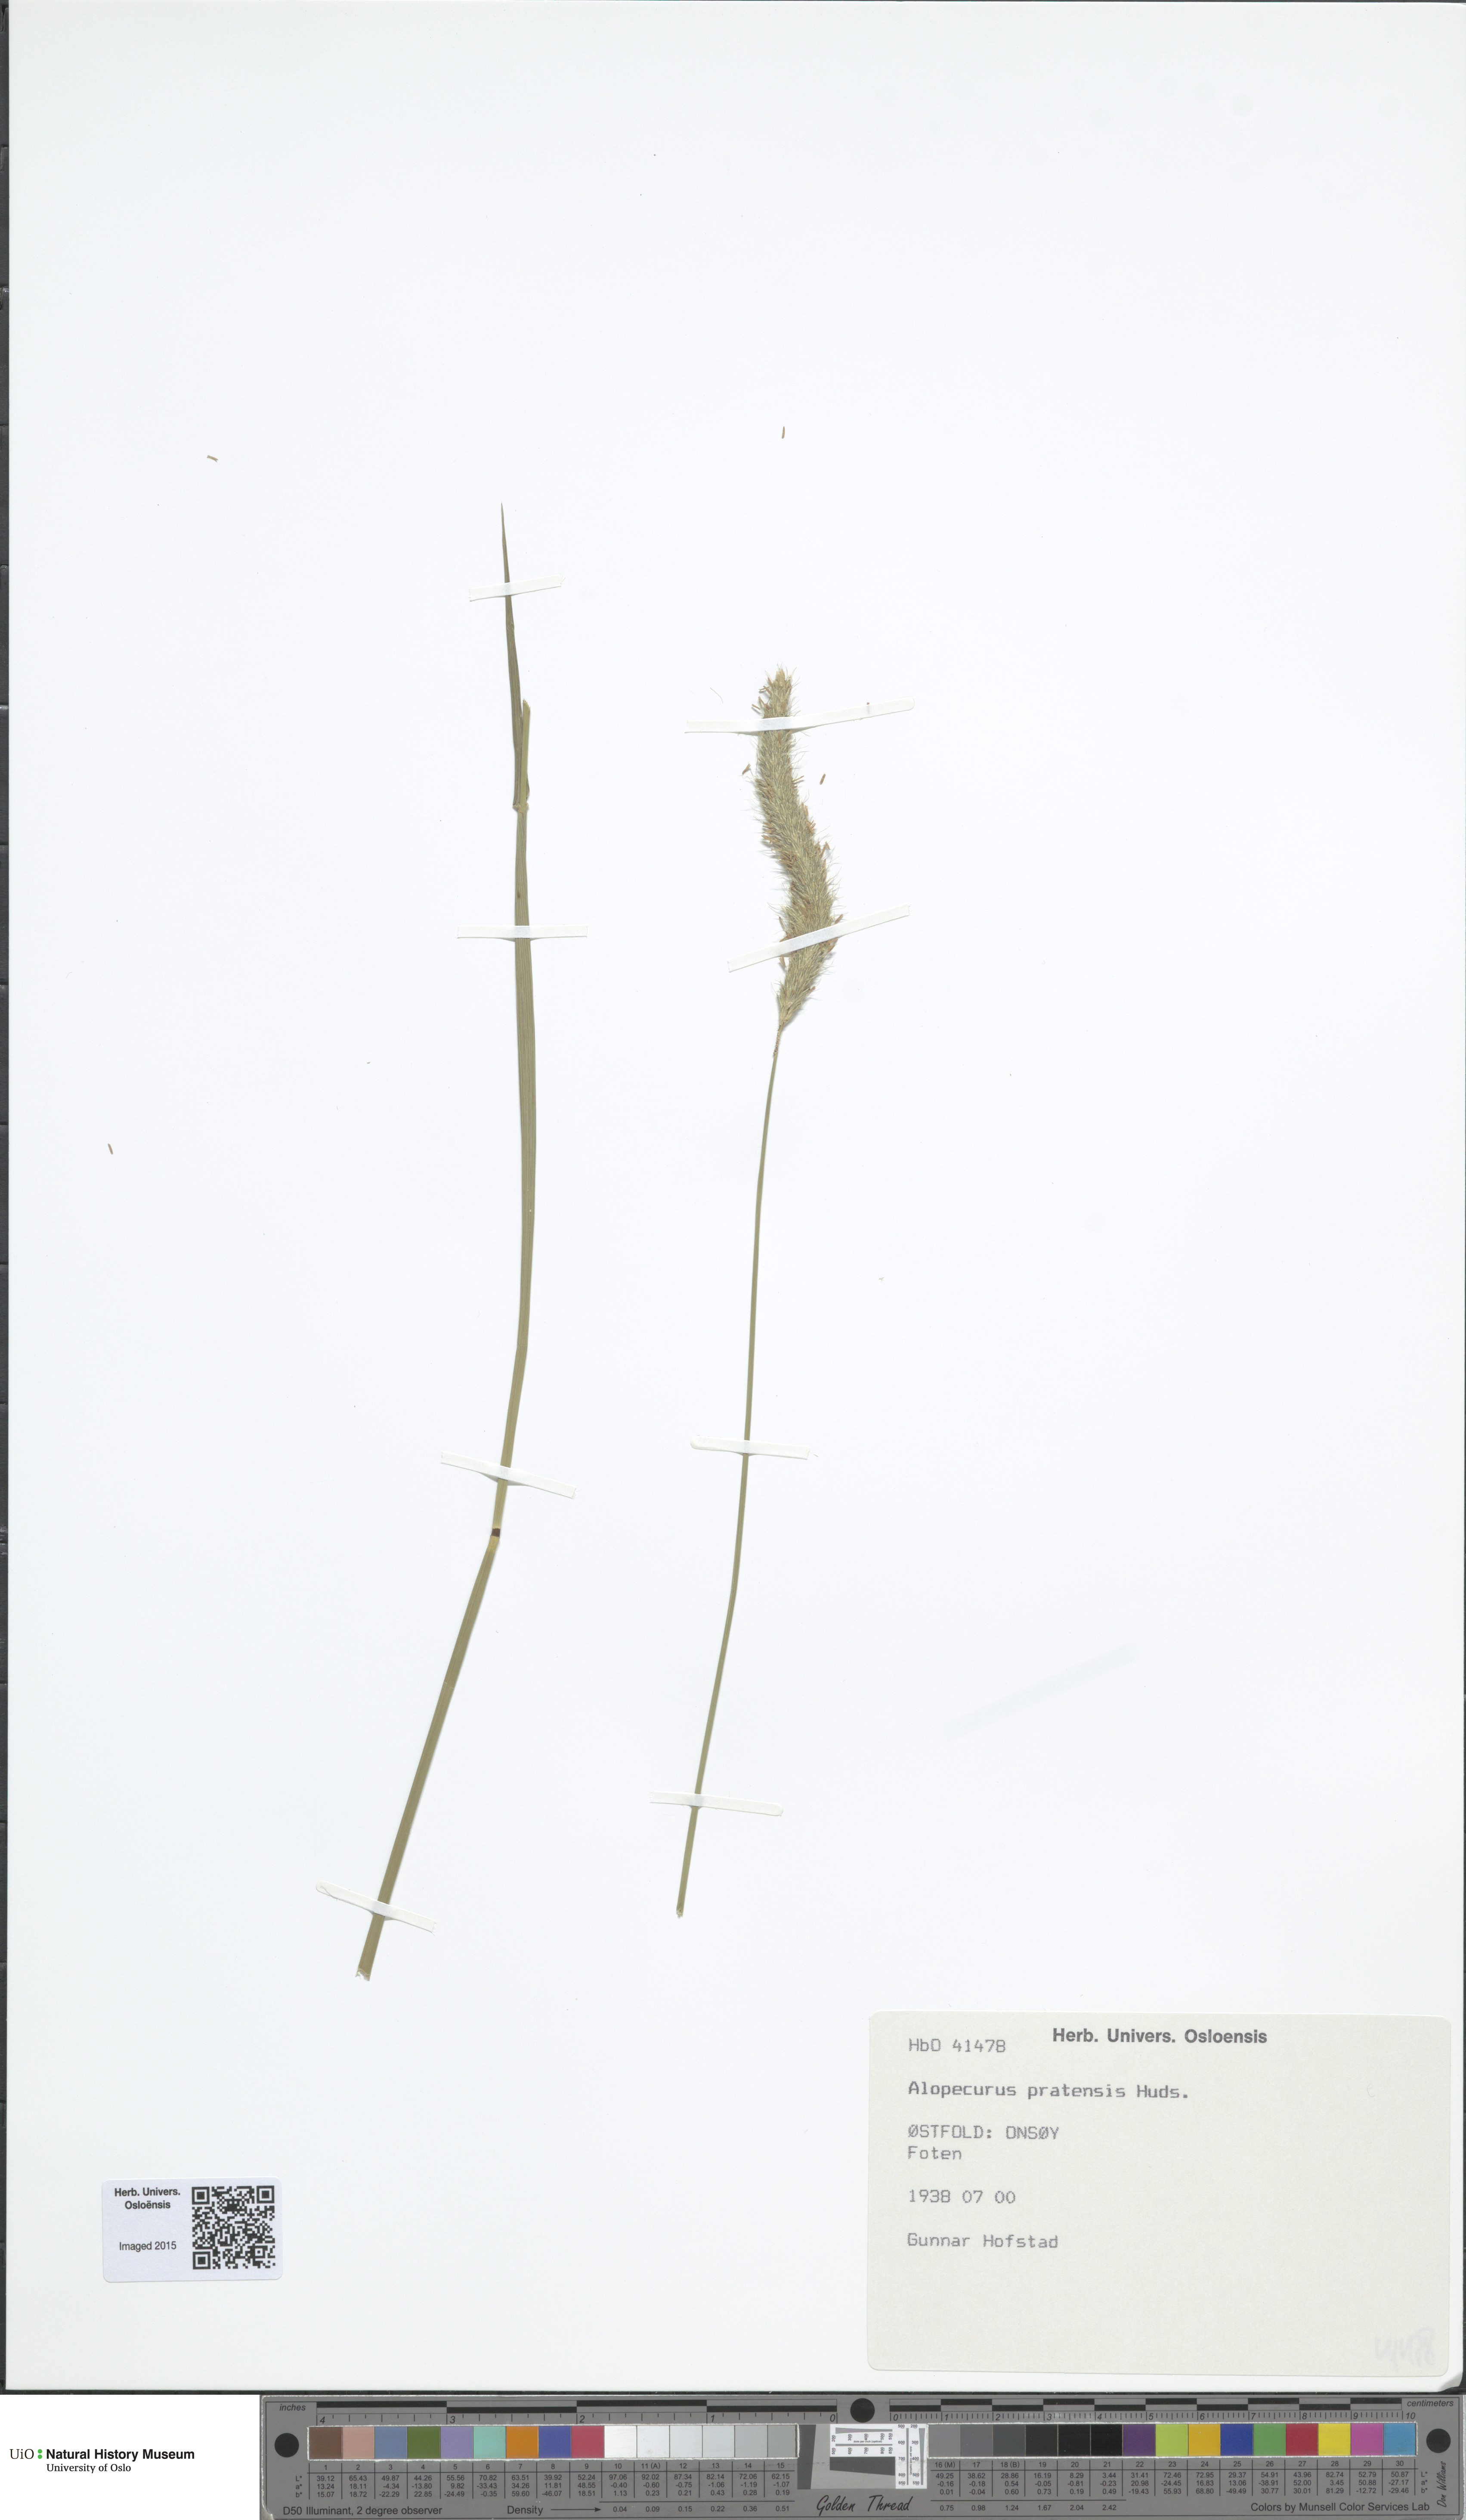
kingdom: Plantae
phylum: Tracheophyta
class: Liliopsida
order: Poales
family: Poaceae
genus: Alopecurus
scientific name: Alopecurus pratensis
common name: Meadow foxtail
